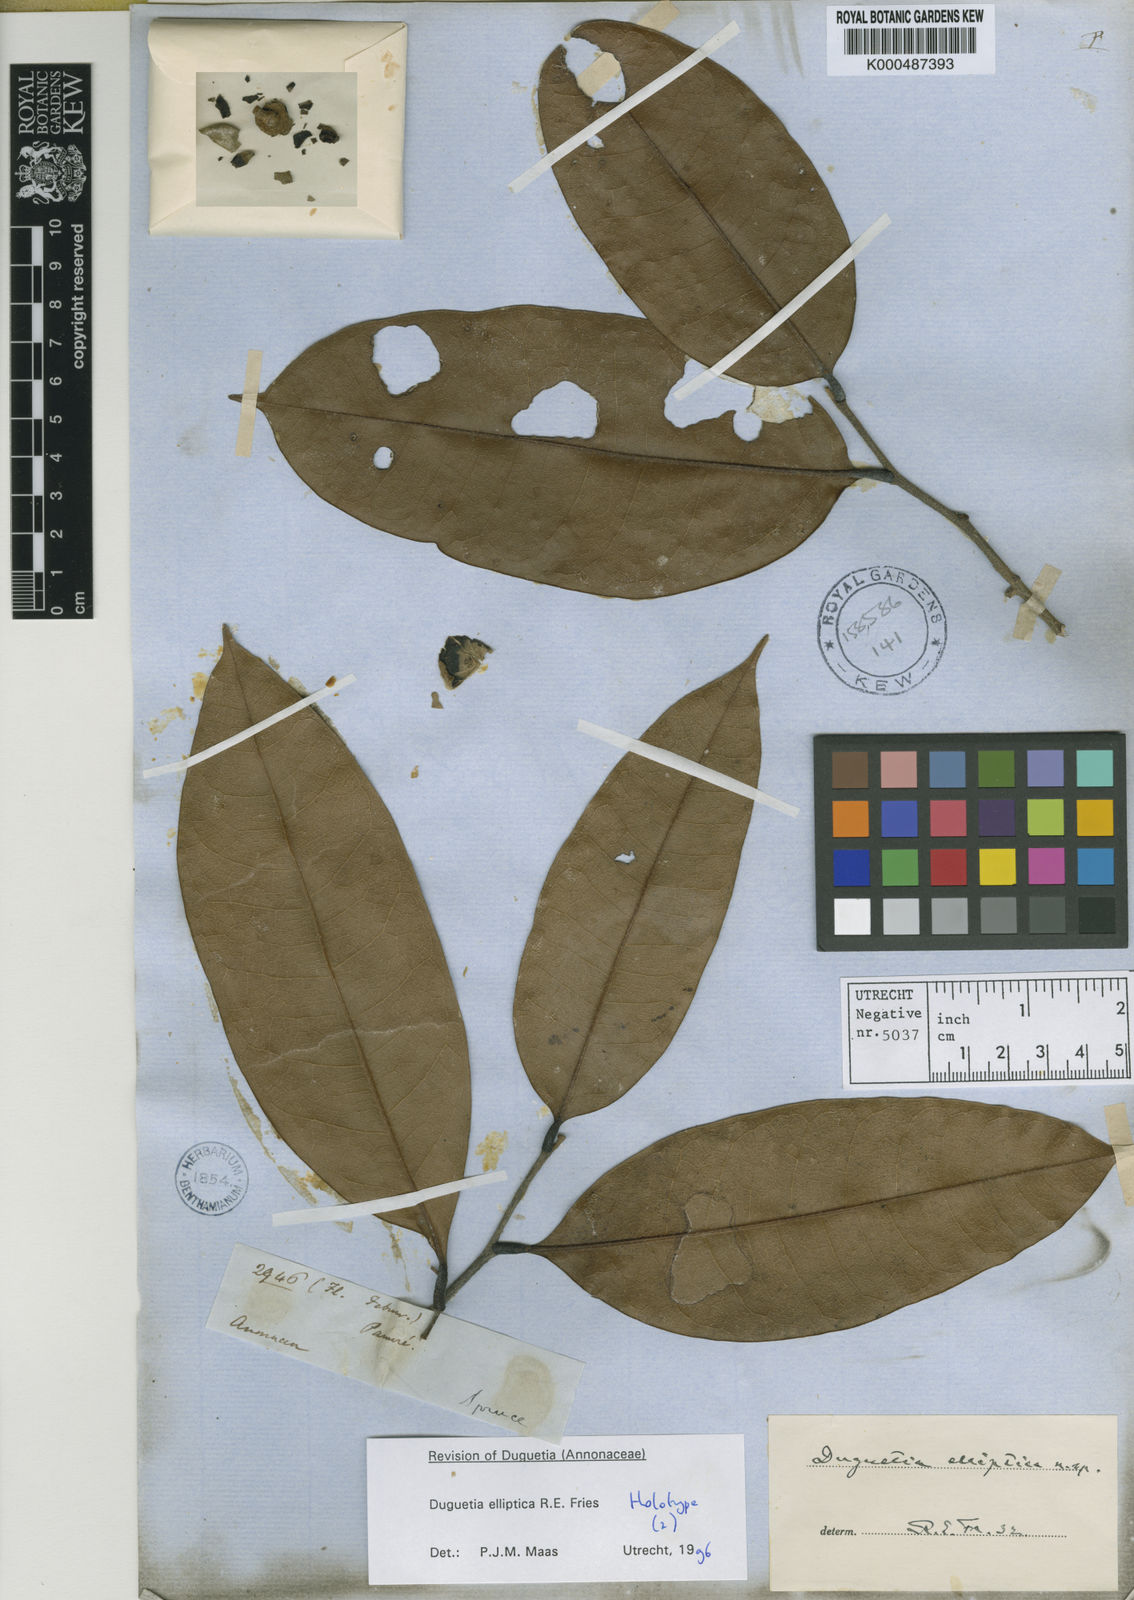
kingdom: Plantae
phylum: Tracheophyta
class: Magnoliopsida
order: Magnoliales
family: Annonaceae
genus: Duguetia
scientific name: Duguetia elliptica
